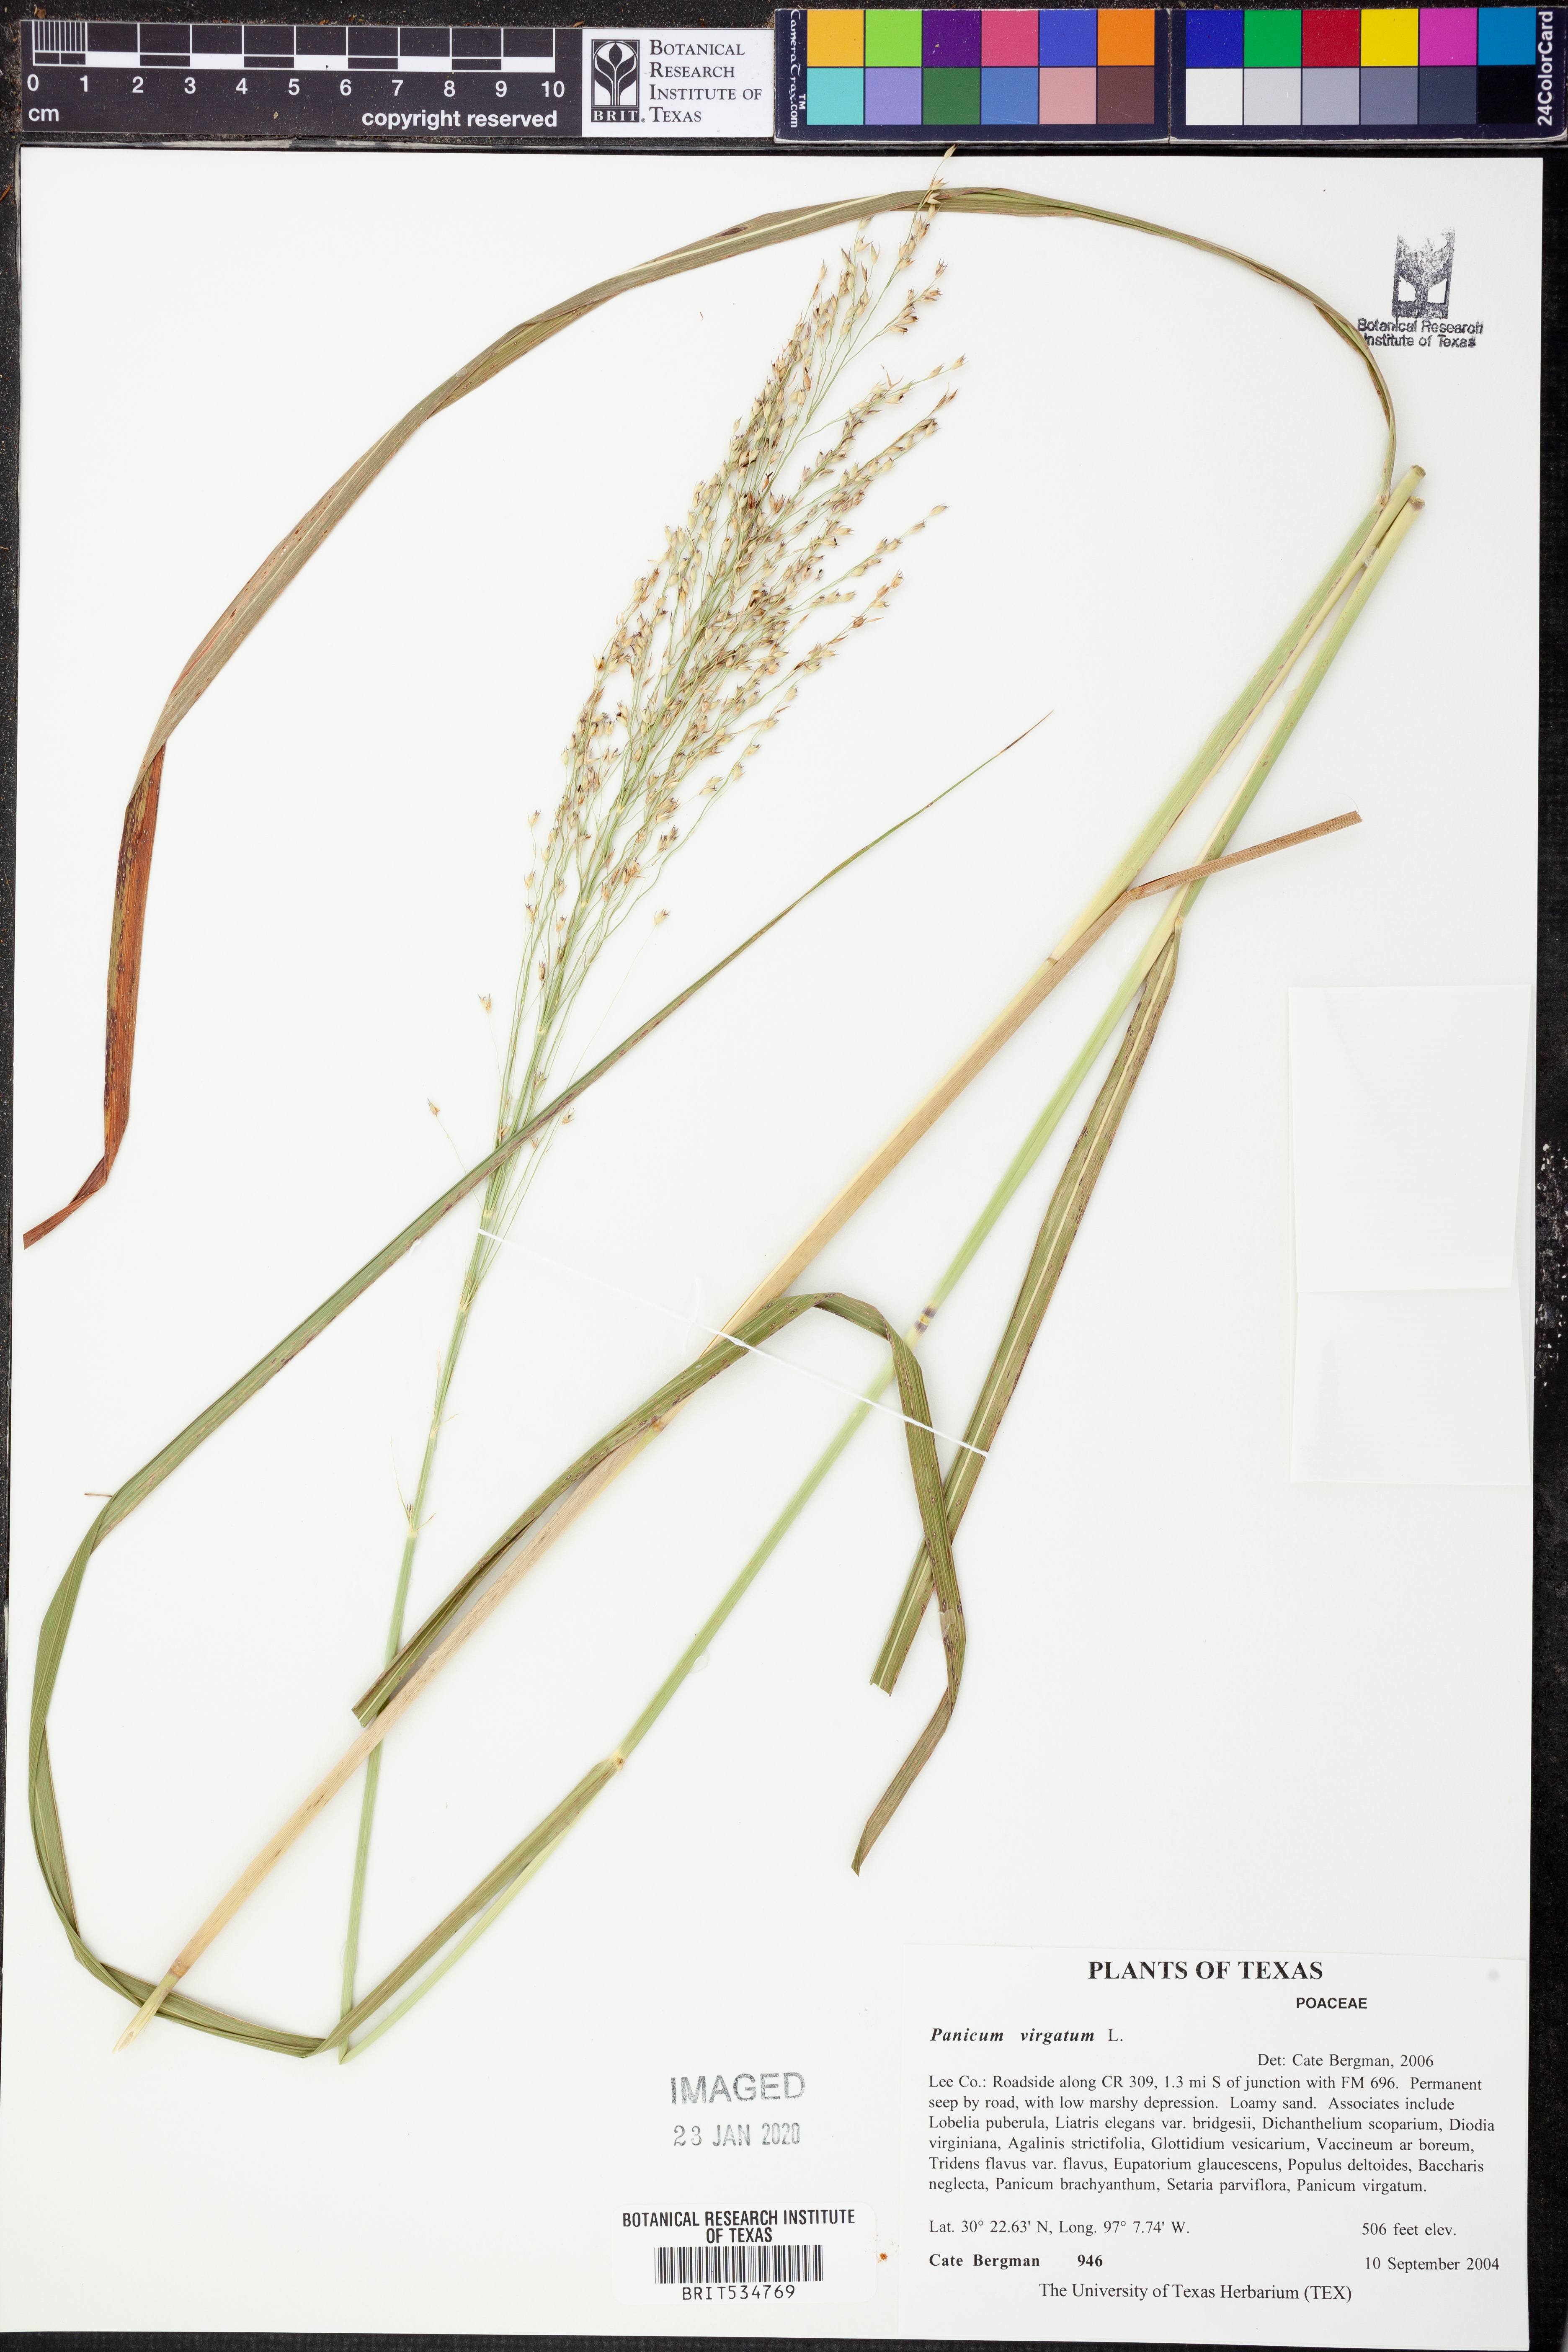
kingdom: Plantae
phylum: Tracheophyta
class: Liliopsida
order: Poales
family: Poaceae
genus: Panicum
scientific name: Panicum virgatum
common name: Switchgrass
